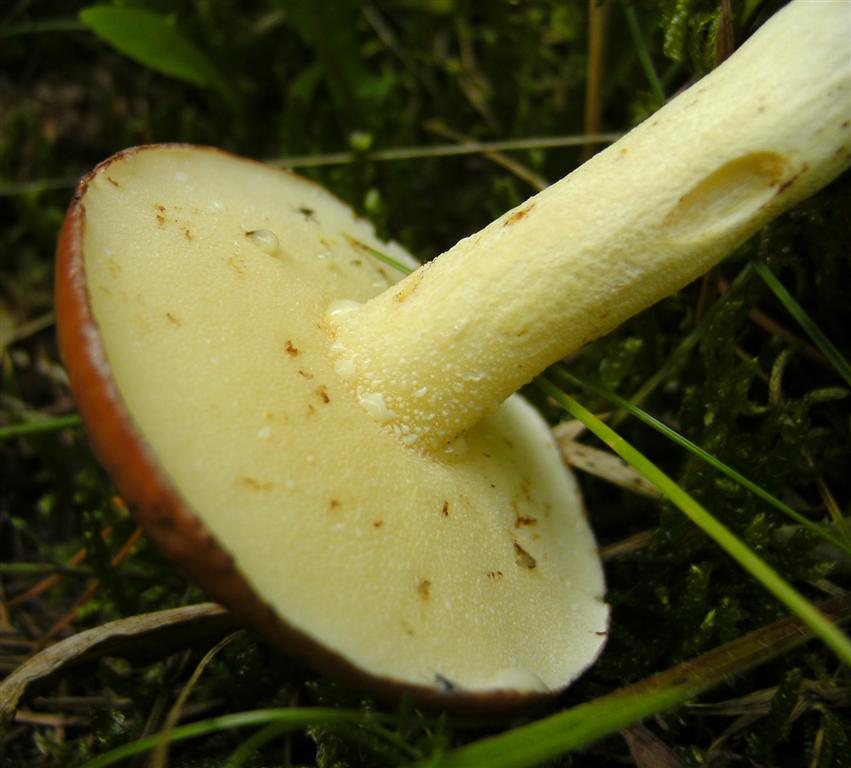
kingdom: Fungi
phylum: Basidiomycota
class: Agaricomycetes
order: Boletales
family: Suillaceae
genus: Suillus
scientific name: Suillus granulatus
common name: kornet slimrørhat
